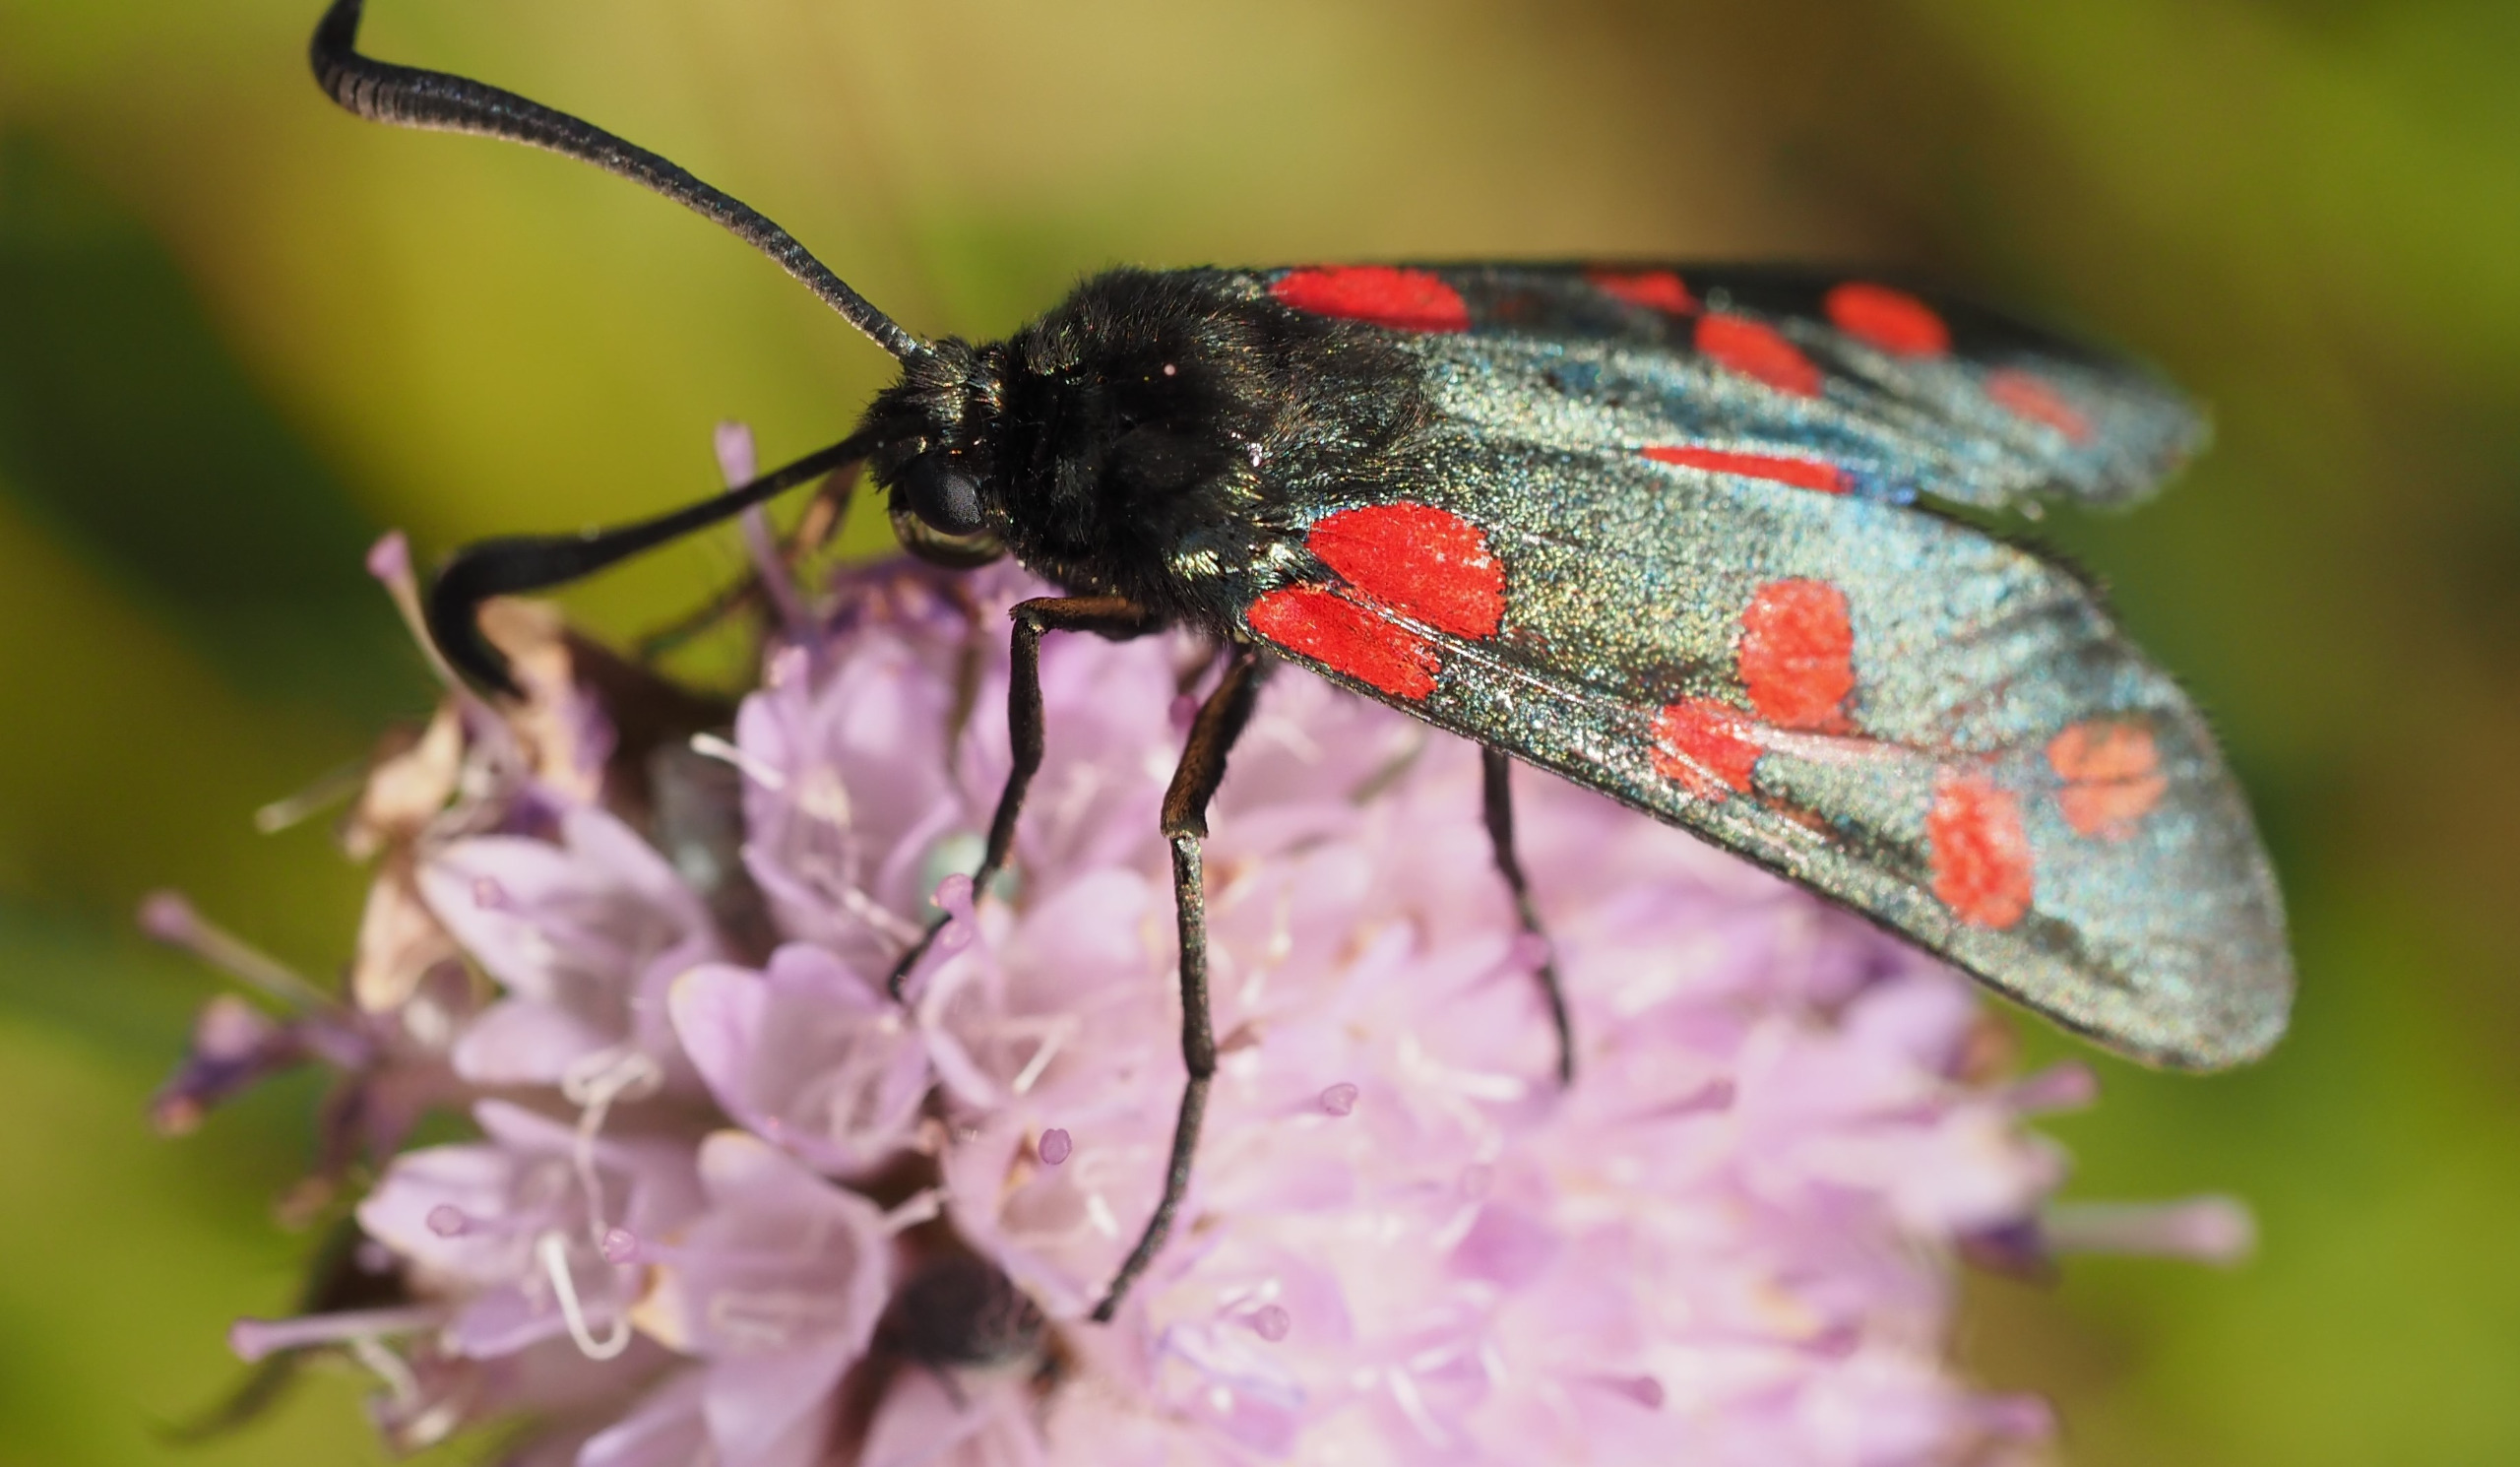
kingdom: Animalia
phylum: Arthropoda
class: Insecta
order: Lepidoptera
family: Zygaenidae
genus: Zygaena
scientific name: Zygaena filipendulae
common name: Seksplettet køllesværmer
